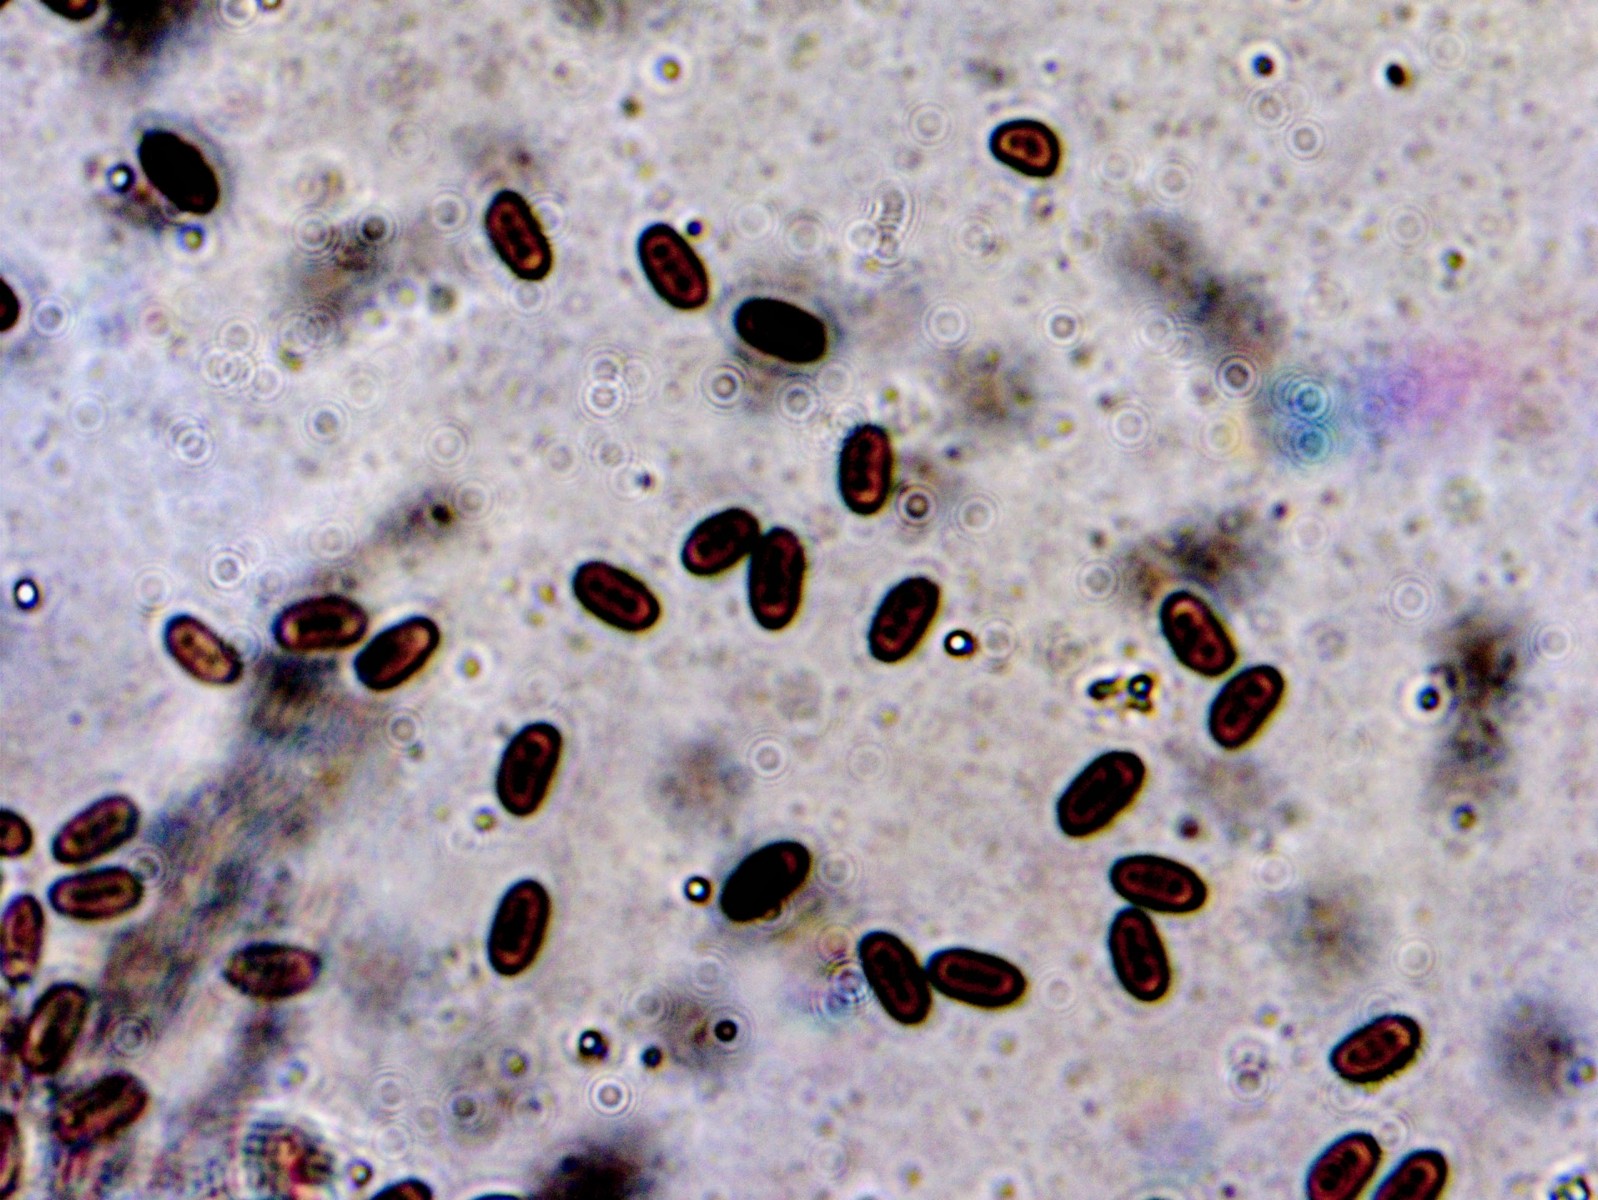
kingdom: Fungi
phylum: Basidiomycota
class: Agaricomycetes
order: Agaricales
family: Psathyrellaceae
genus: Coprinopsis
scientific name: Coprinopsis stercorea
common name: pjusket blækhat
